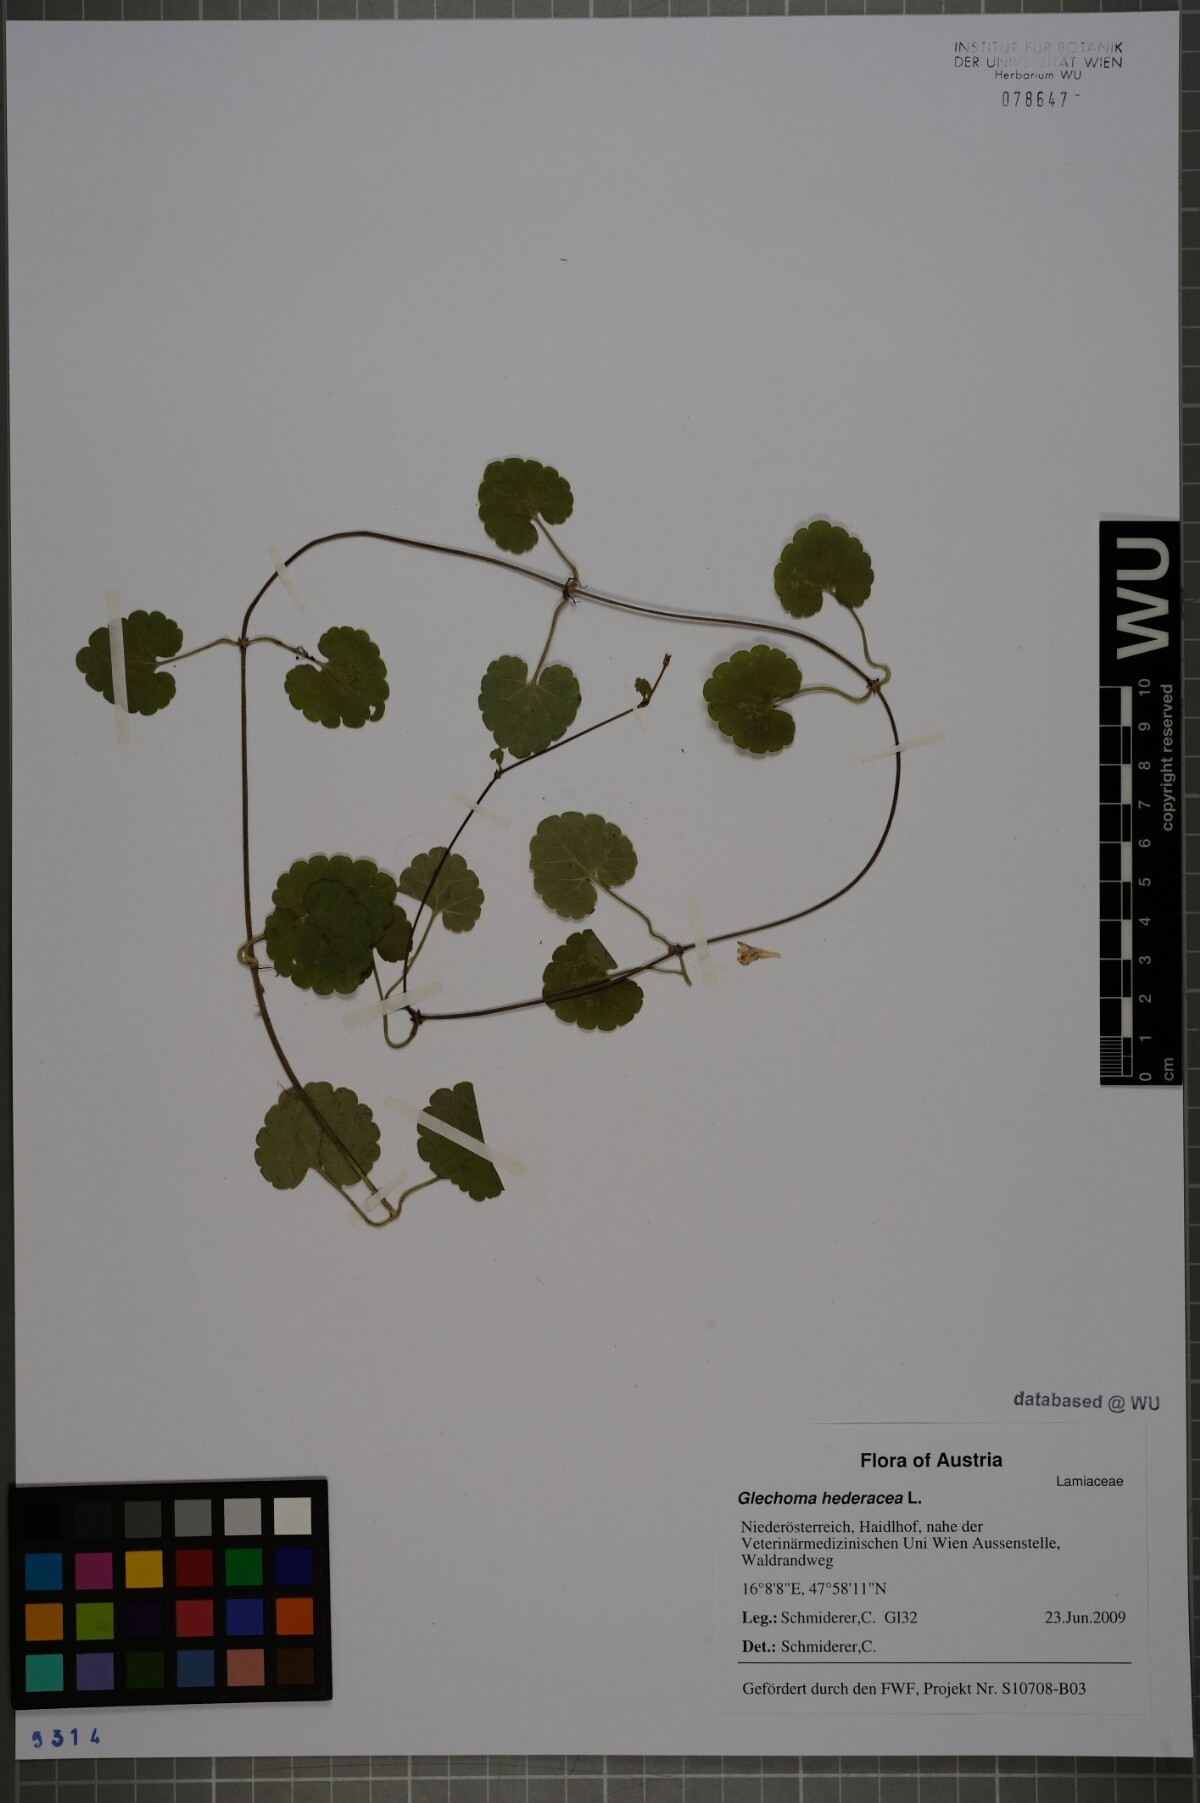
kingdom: Plantae
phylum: Tracheophyta
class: Magnoliopsida
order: Lamiales
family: Lamiaceae
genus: Glechoma
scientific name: Glechoma hederacea
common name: Ground ivy
